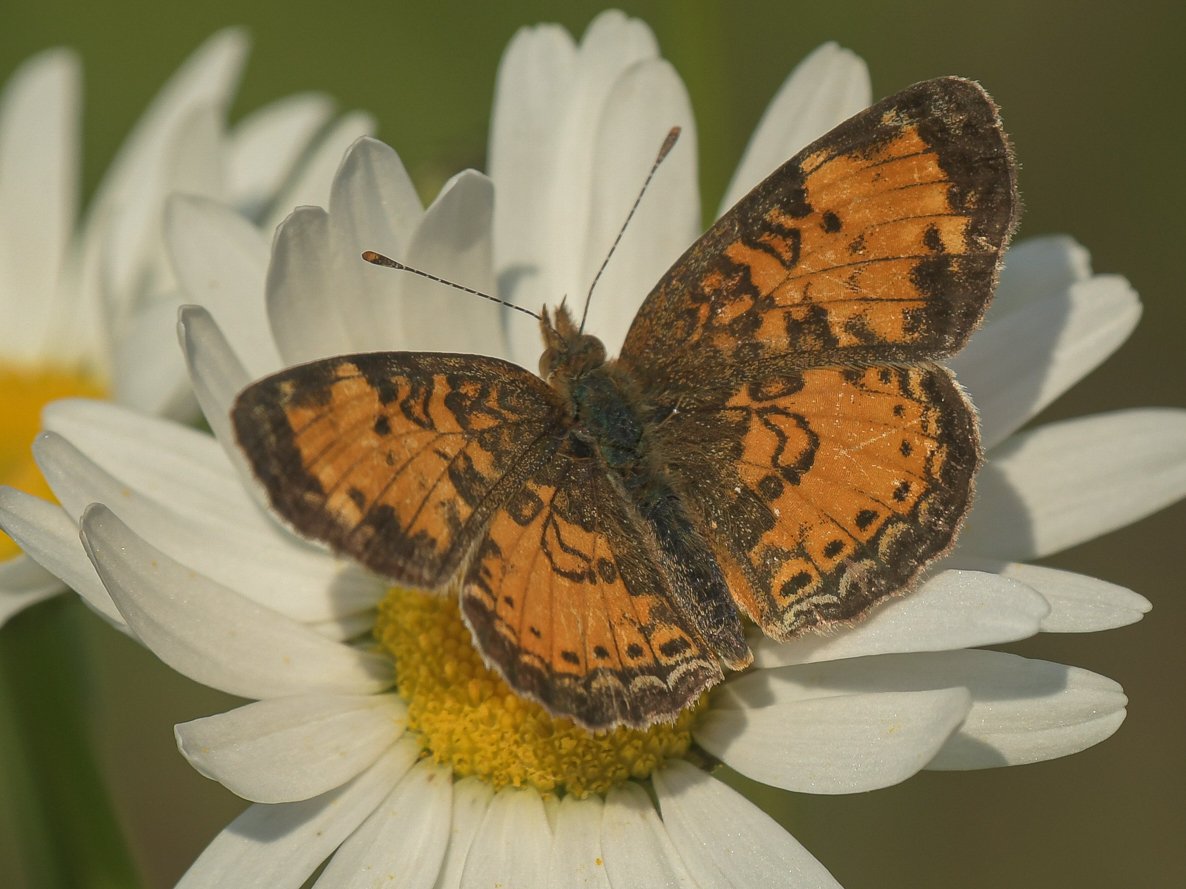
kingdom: Animalia
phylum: Arthropoda
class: Insecta
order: Lepidoptera
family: Nymphalidae
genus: Phyciodes
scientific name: Phyciodes tharos
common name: Northern Crescent
